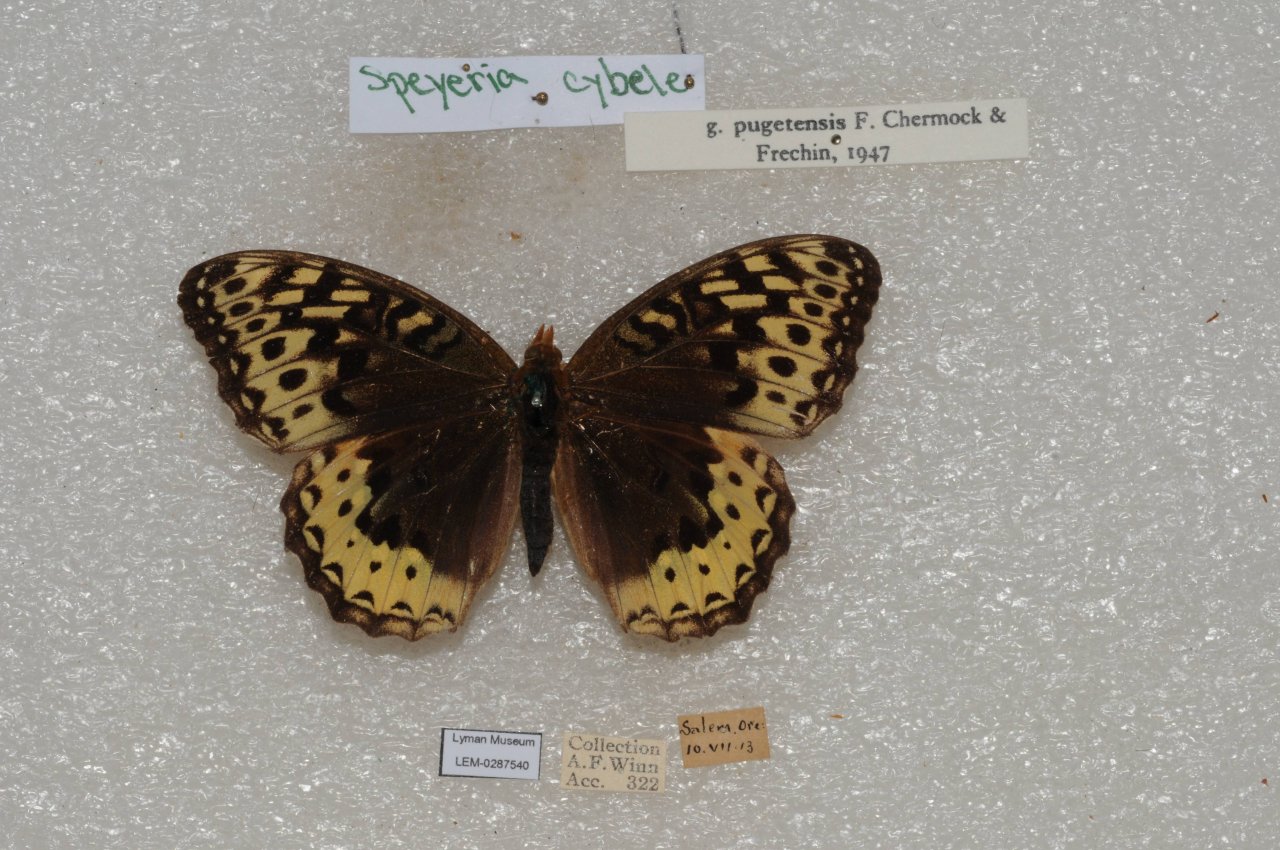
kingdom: Animalia
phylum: Arthropoda
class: Insecta
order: Lepidoptera
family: Nymphalidae
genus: Speyeria
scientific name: Speyeria cybele
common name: Great Spangled Fritillary
